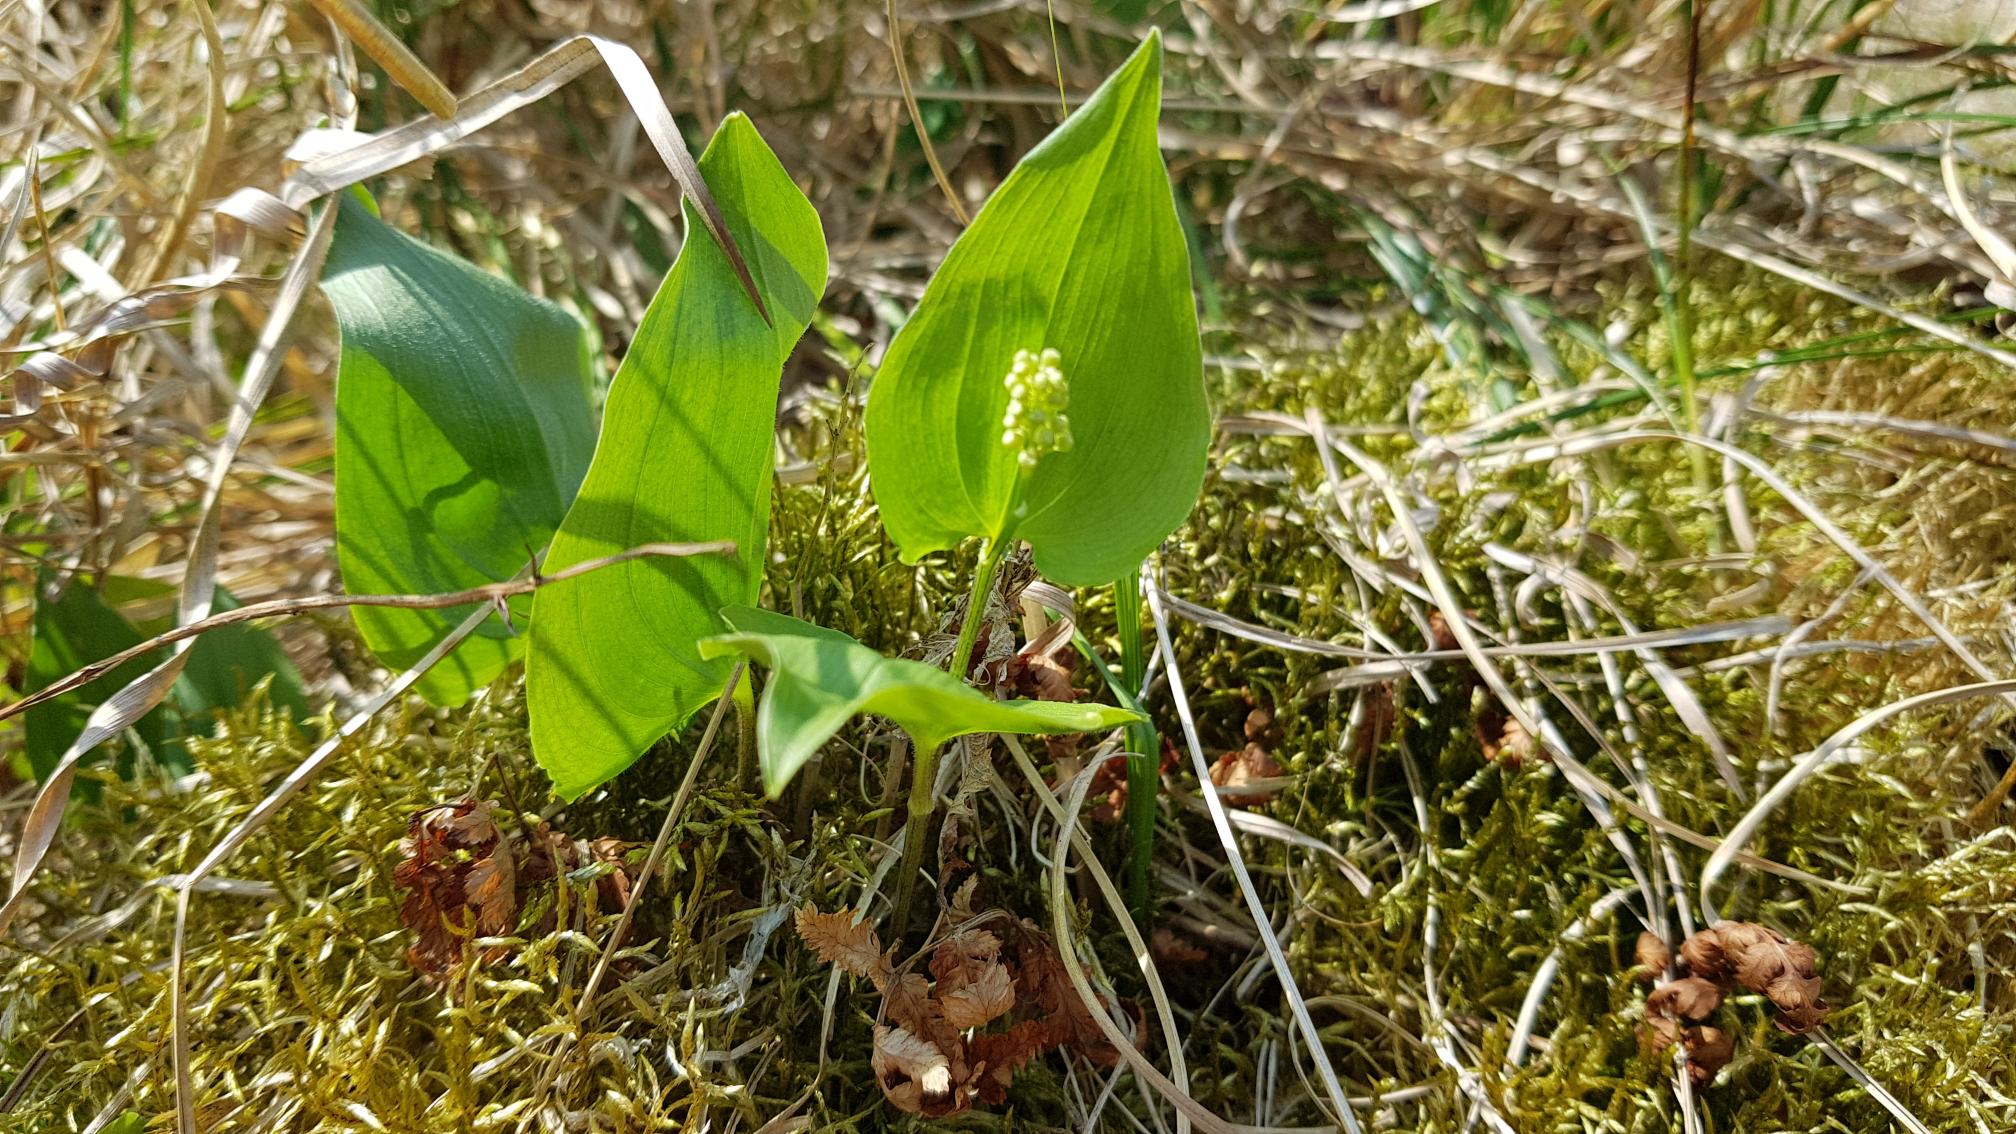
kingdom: Plantae
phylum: Tracheophyta
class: Liliopsida
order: Asparagales
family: Asparagaceae
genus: Maianthemum
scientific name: Maianthemum bifolium
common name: Majblomst
